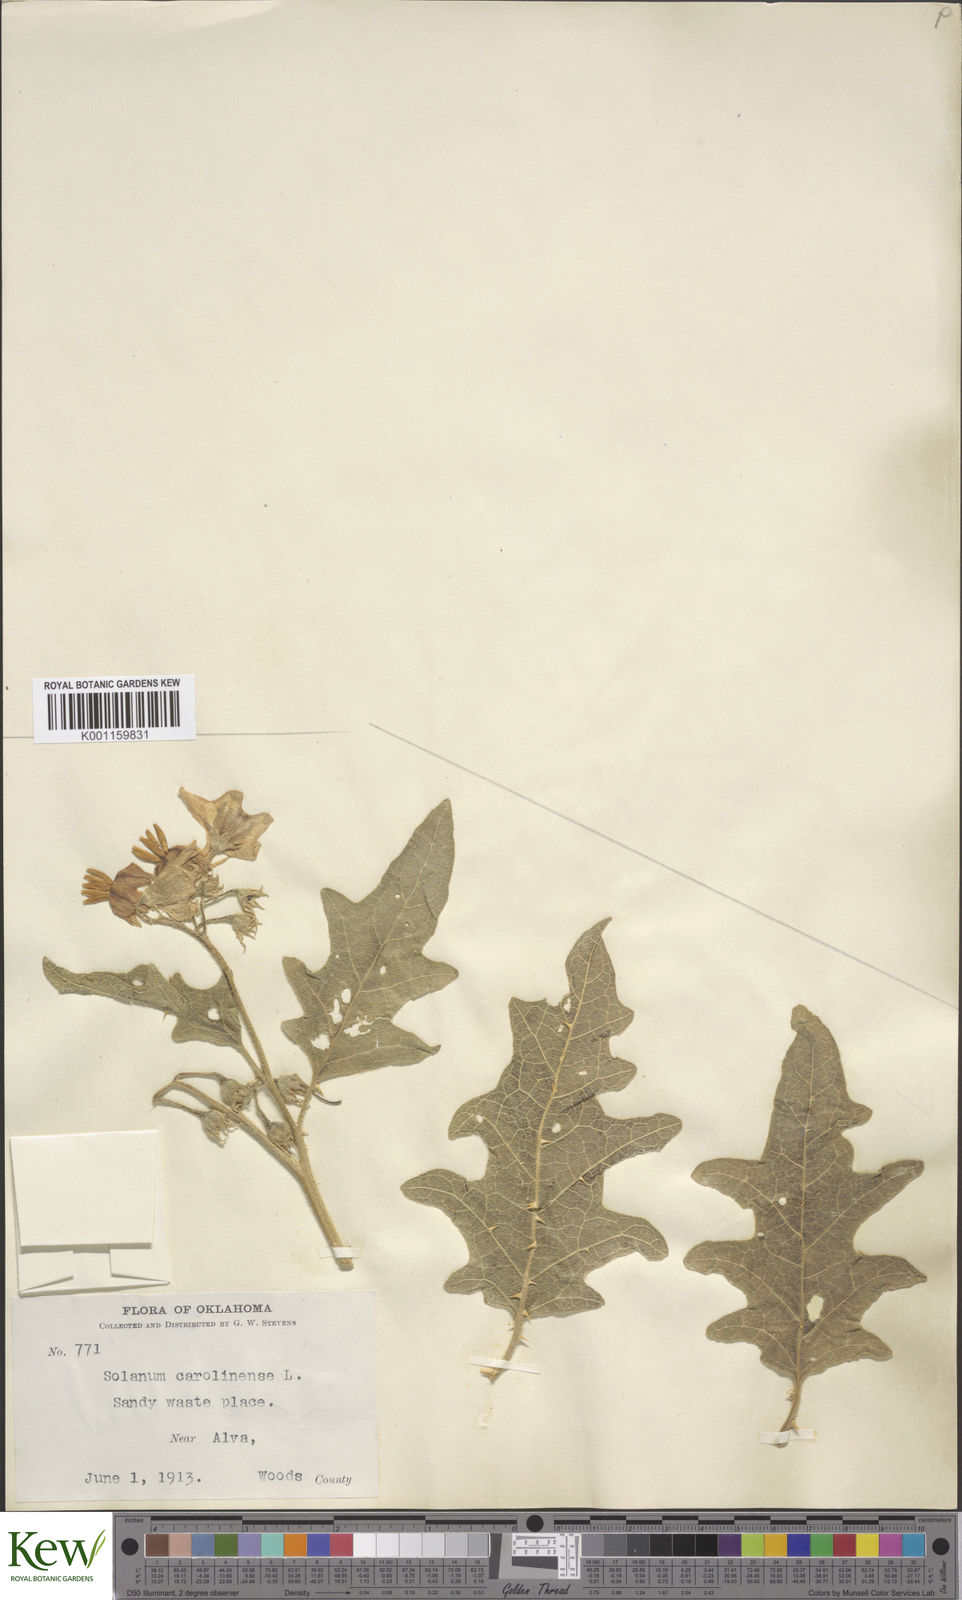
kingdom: Plantae
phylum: Tracheophyta
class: Magnoliopsida
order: Solanales
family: Solanaceae
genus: Solanum
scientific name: Solanum carolinense
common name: Horse-nettle
